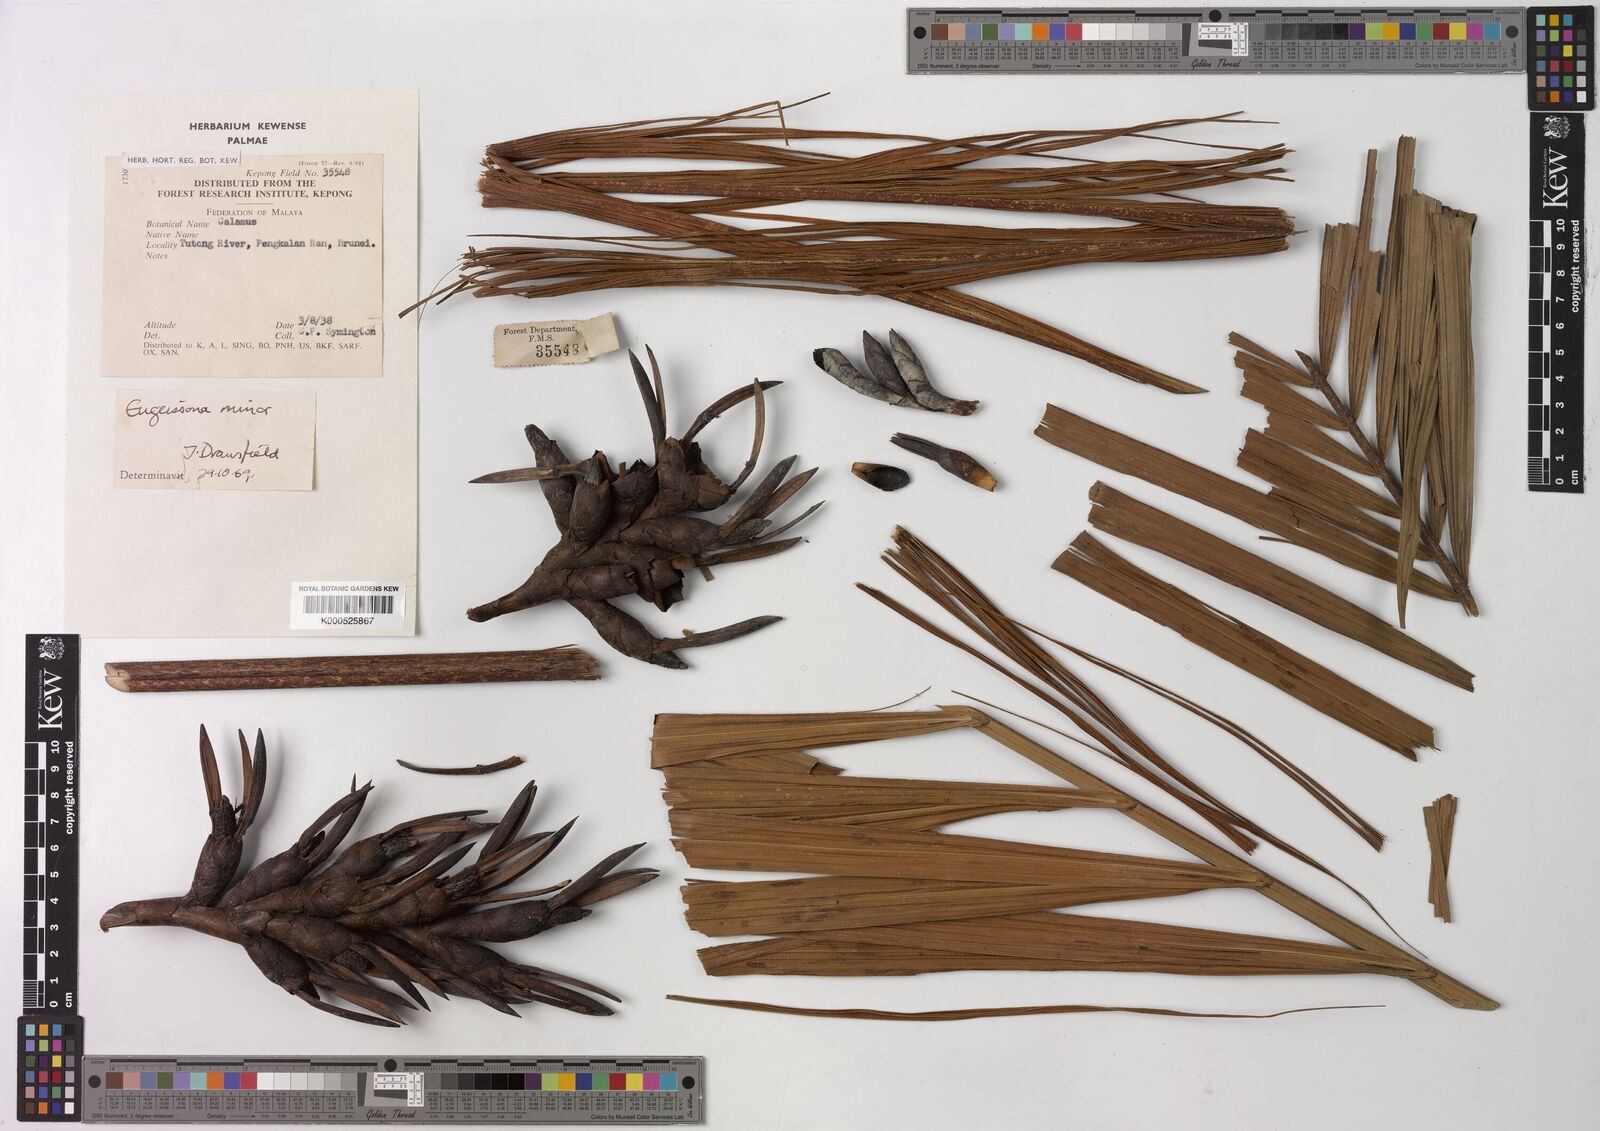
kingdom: Plantae
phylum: Tracheophyta
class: Liliopsida
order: Arecales
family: Arecaceae
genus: Eugeissona
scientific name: Eugeissona minor
